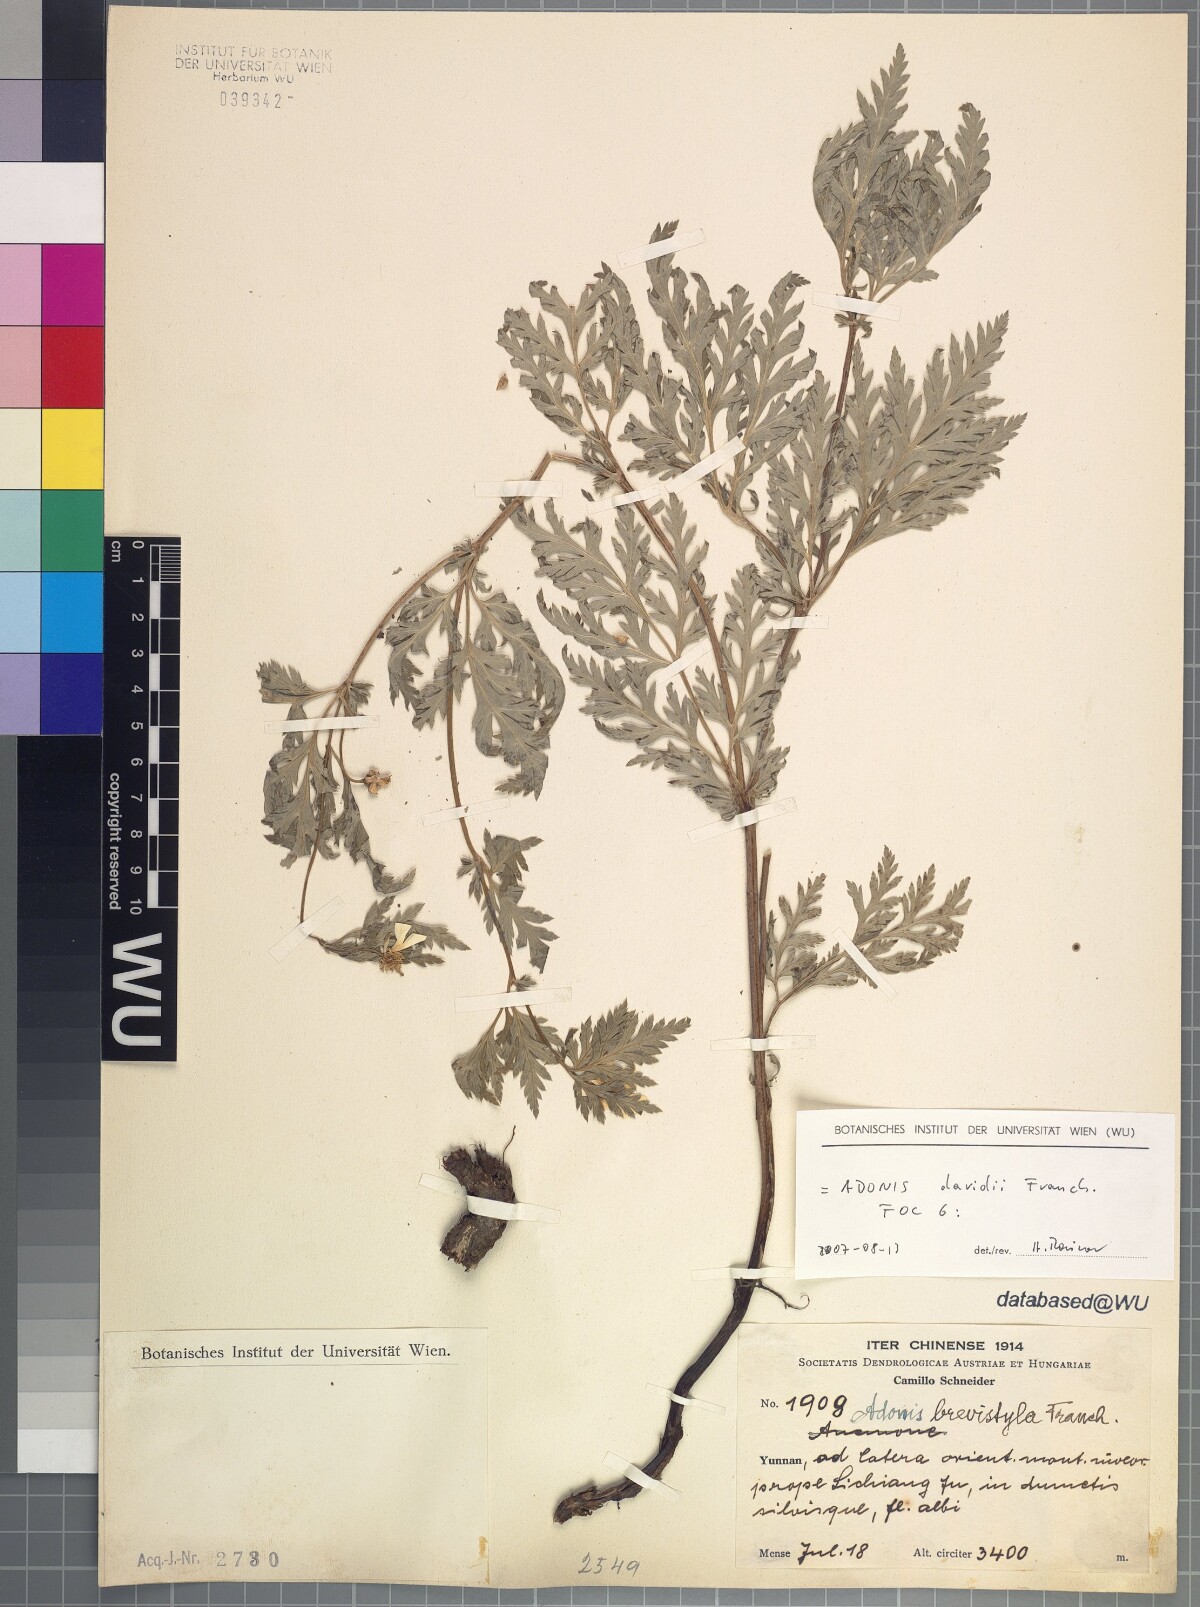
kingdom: Plantae
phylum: Tracheophyta
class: Magnoliopsida
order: Ranunculales
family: Ranunculaceae
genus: Adonis
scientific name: Adonis davidii
